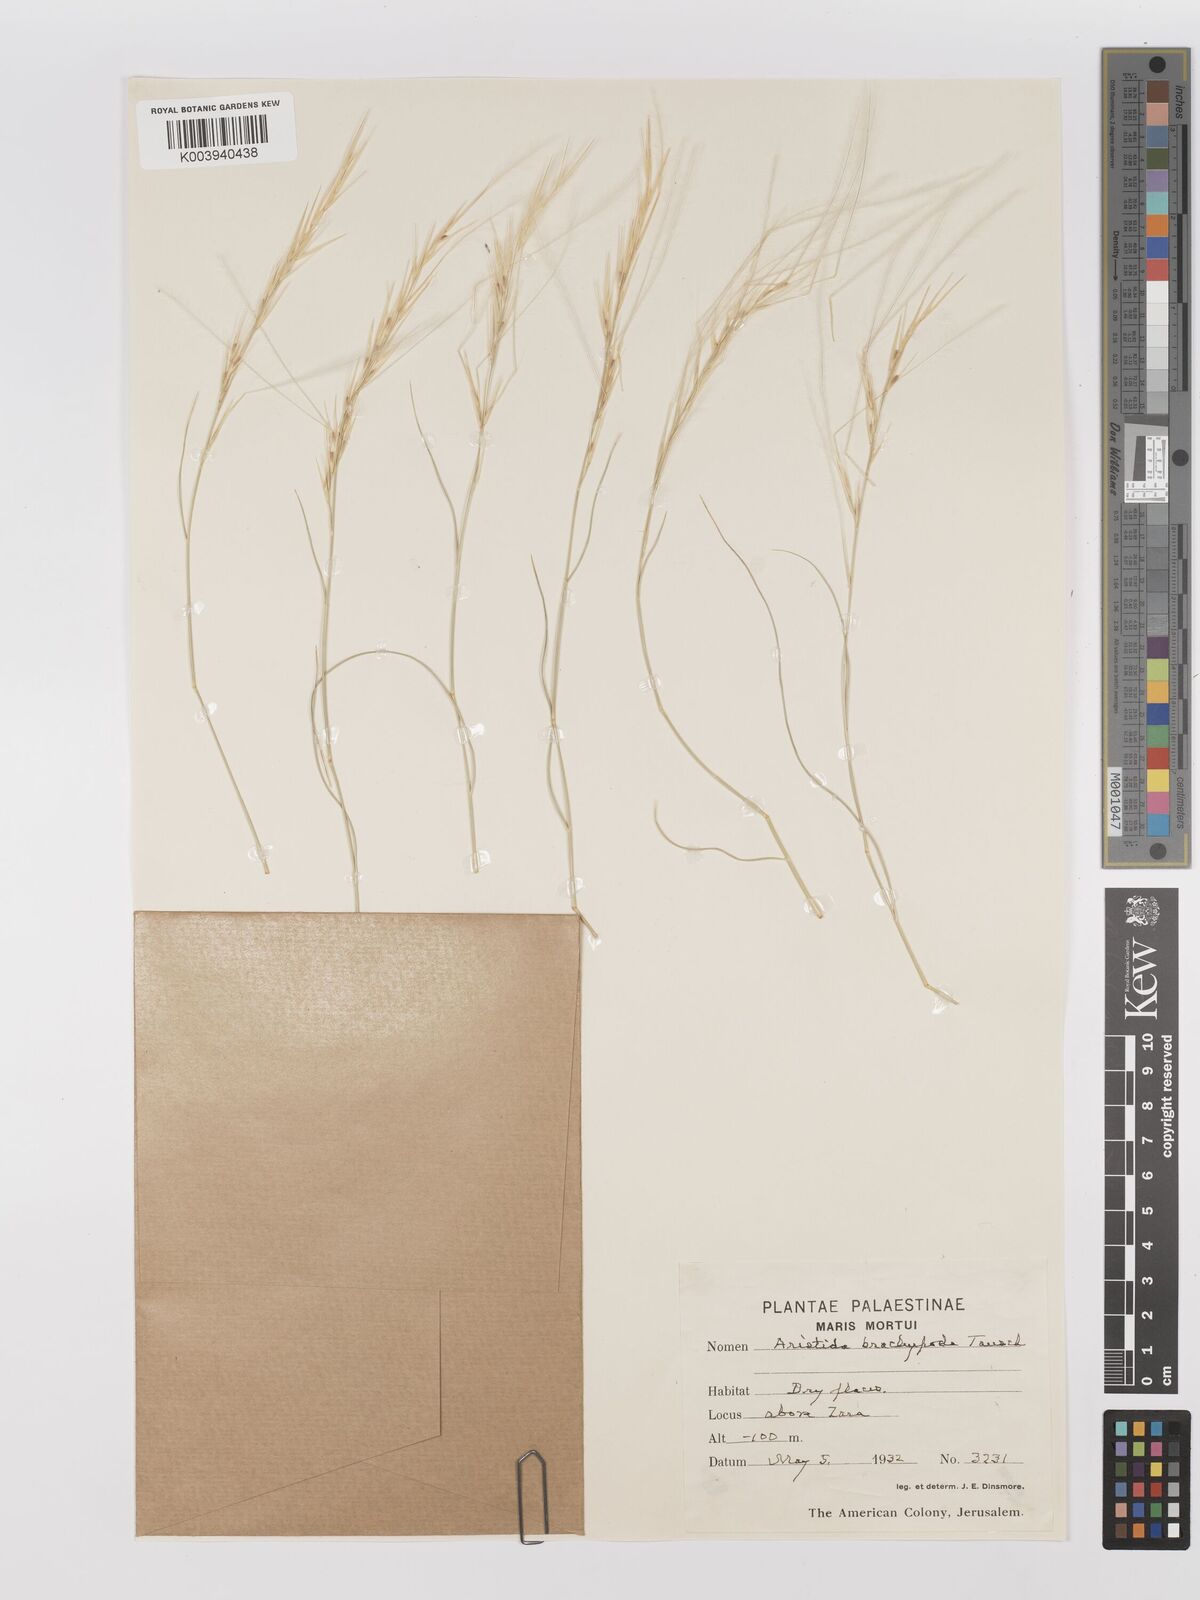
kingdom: Plantae
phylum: Tracheophyta
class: Liliopsida
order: Poales
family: Poaceae
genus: Stipagrostis
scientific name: Stipagrostis plumosa
